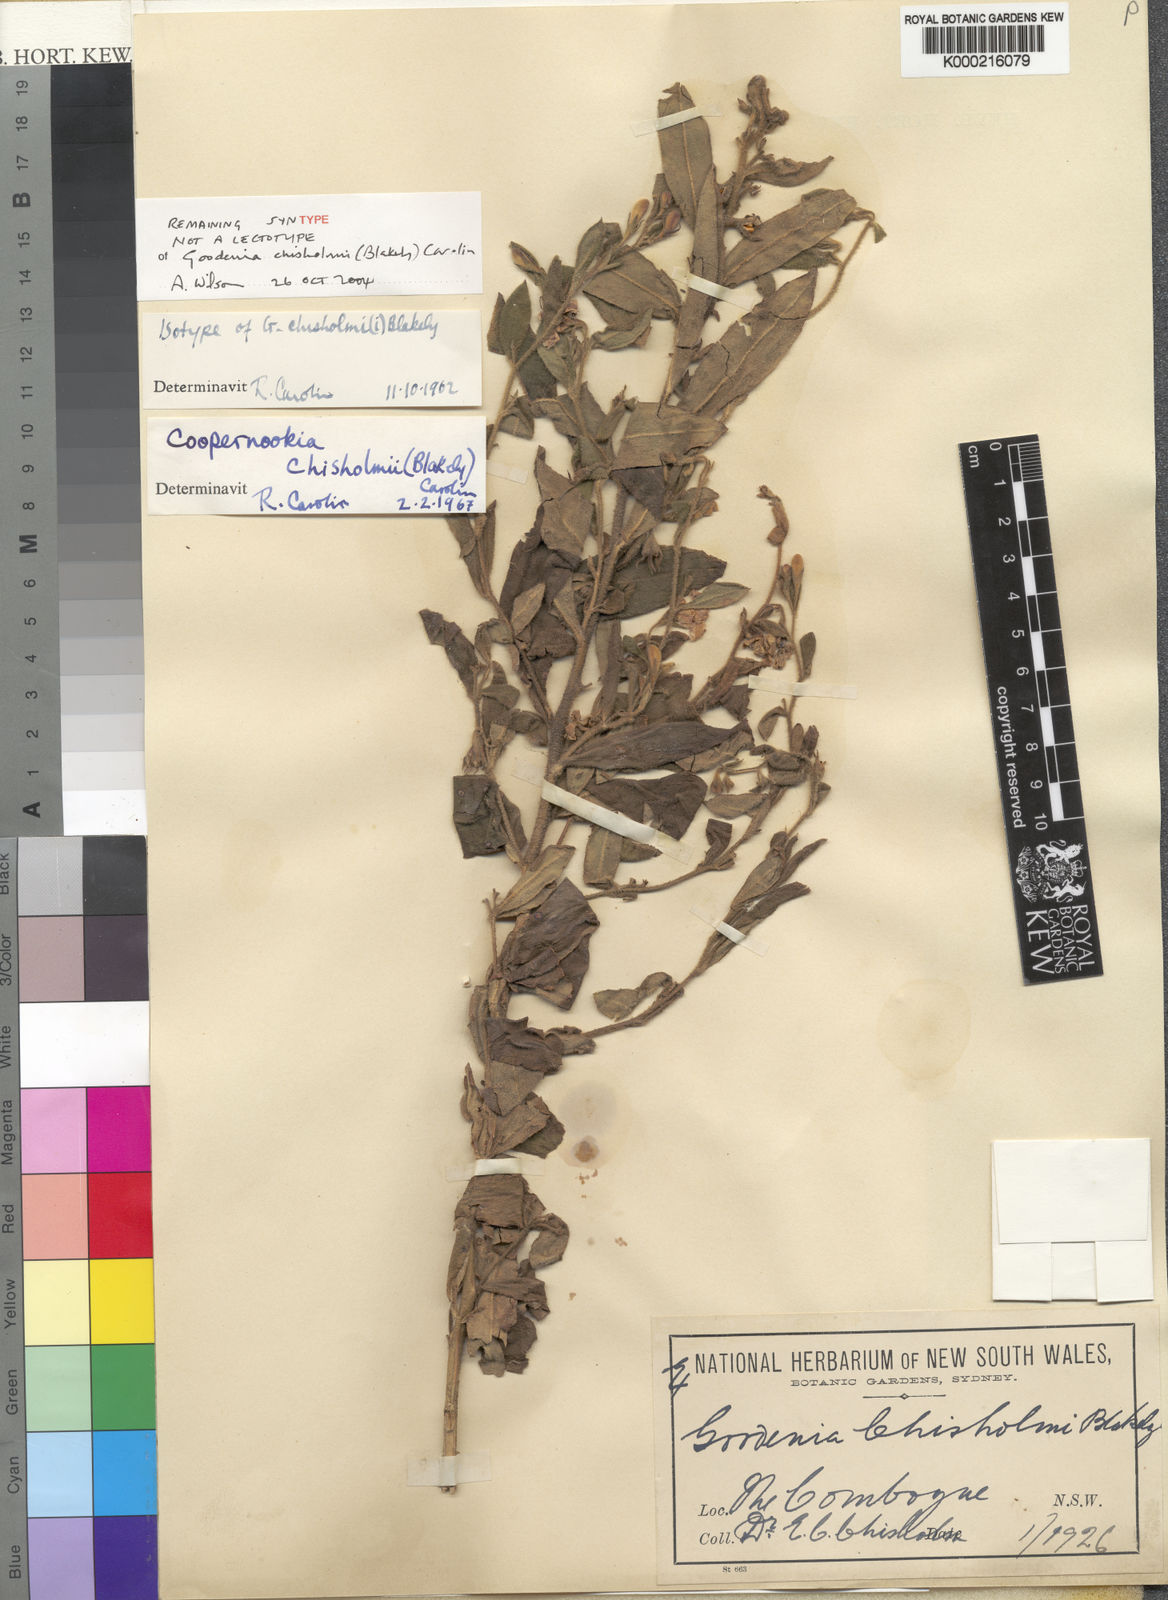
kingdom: Plantae
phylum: Tracheophyta
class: Magnoliopsida
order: Asterales
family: Goodeniaceae
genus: Goodenia
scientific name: Goodenia chisholmii
